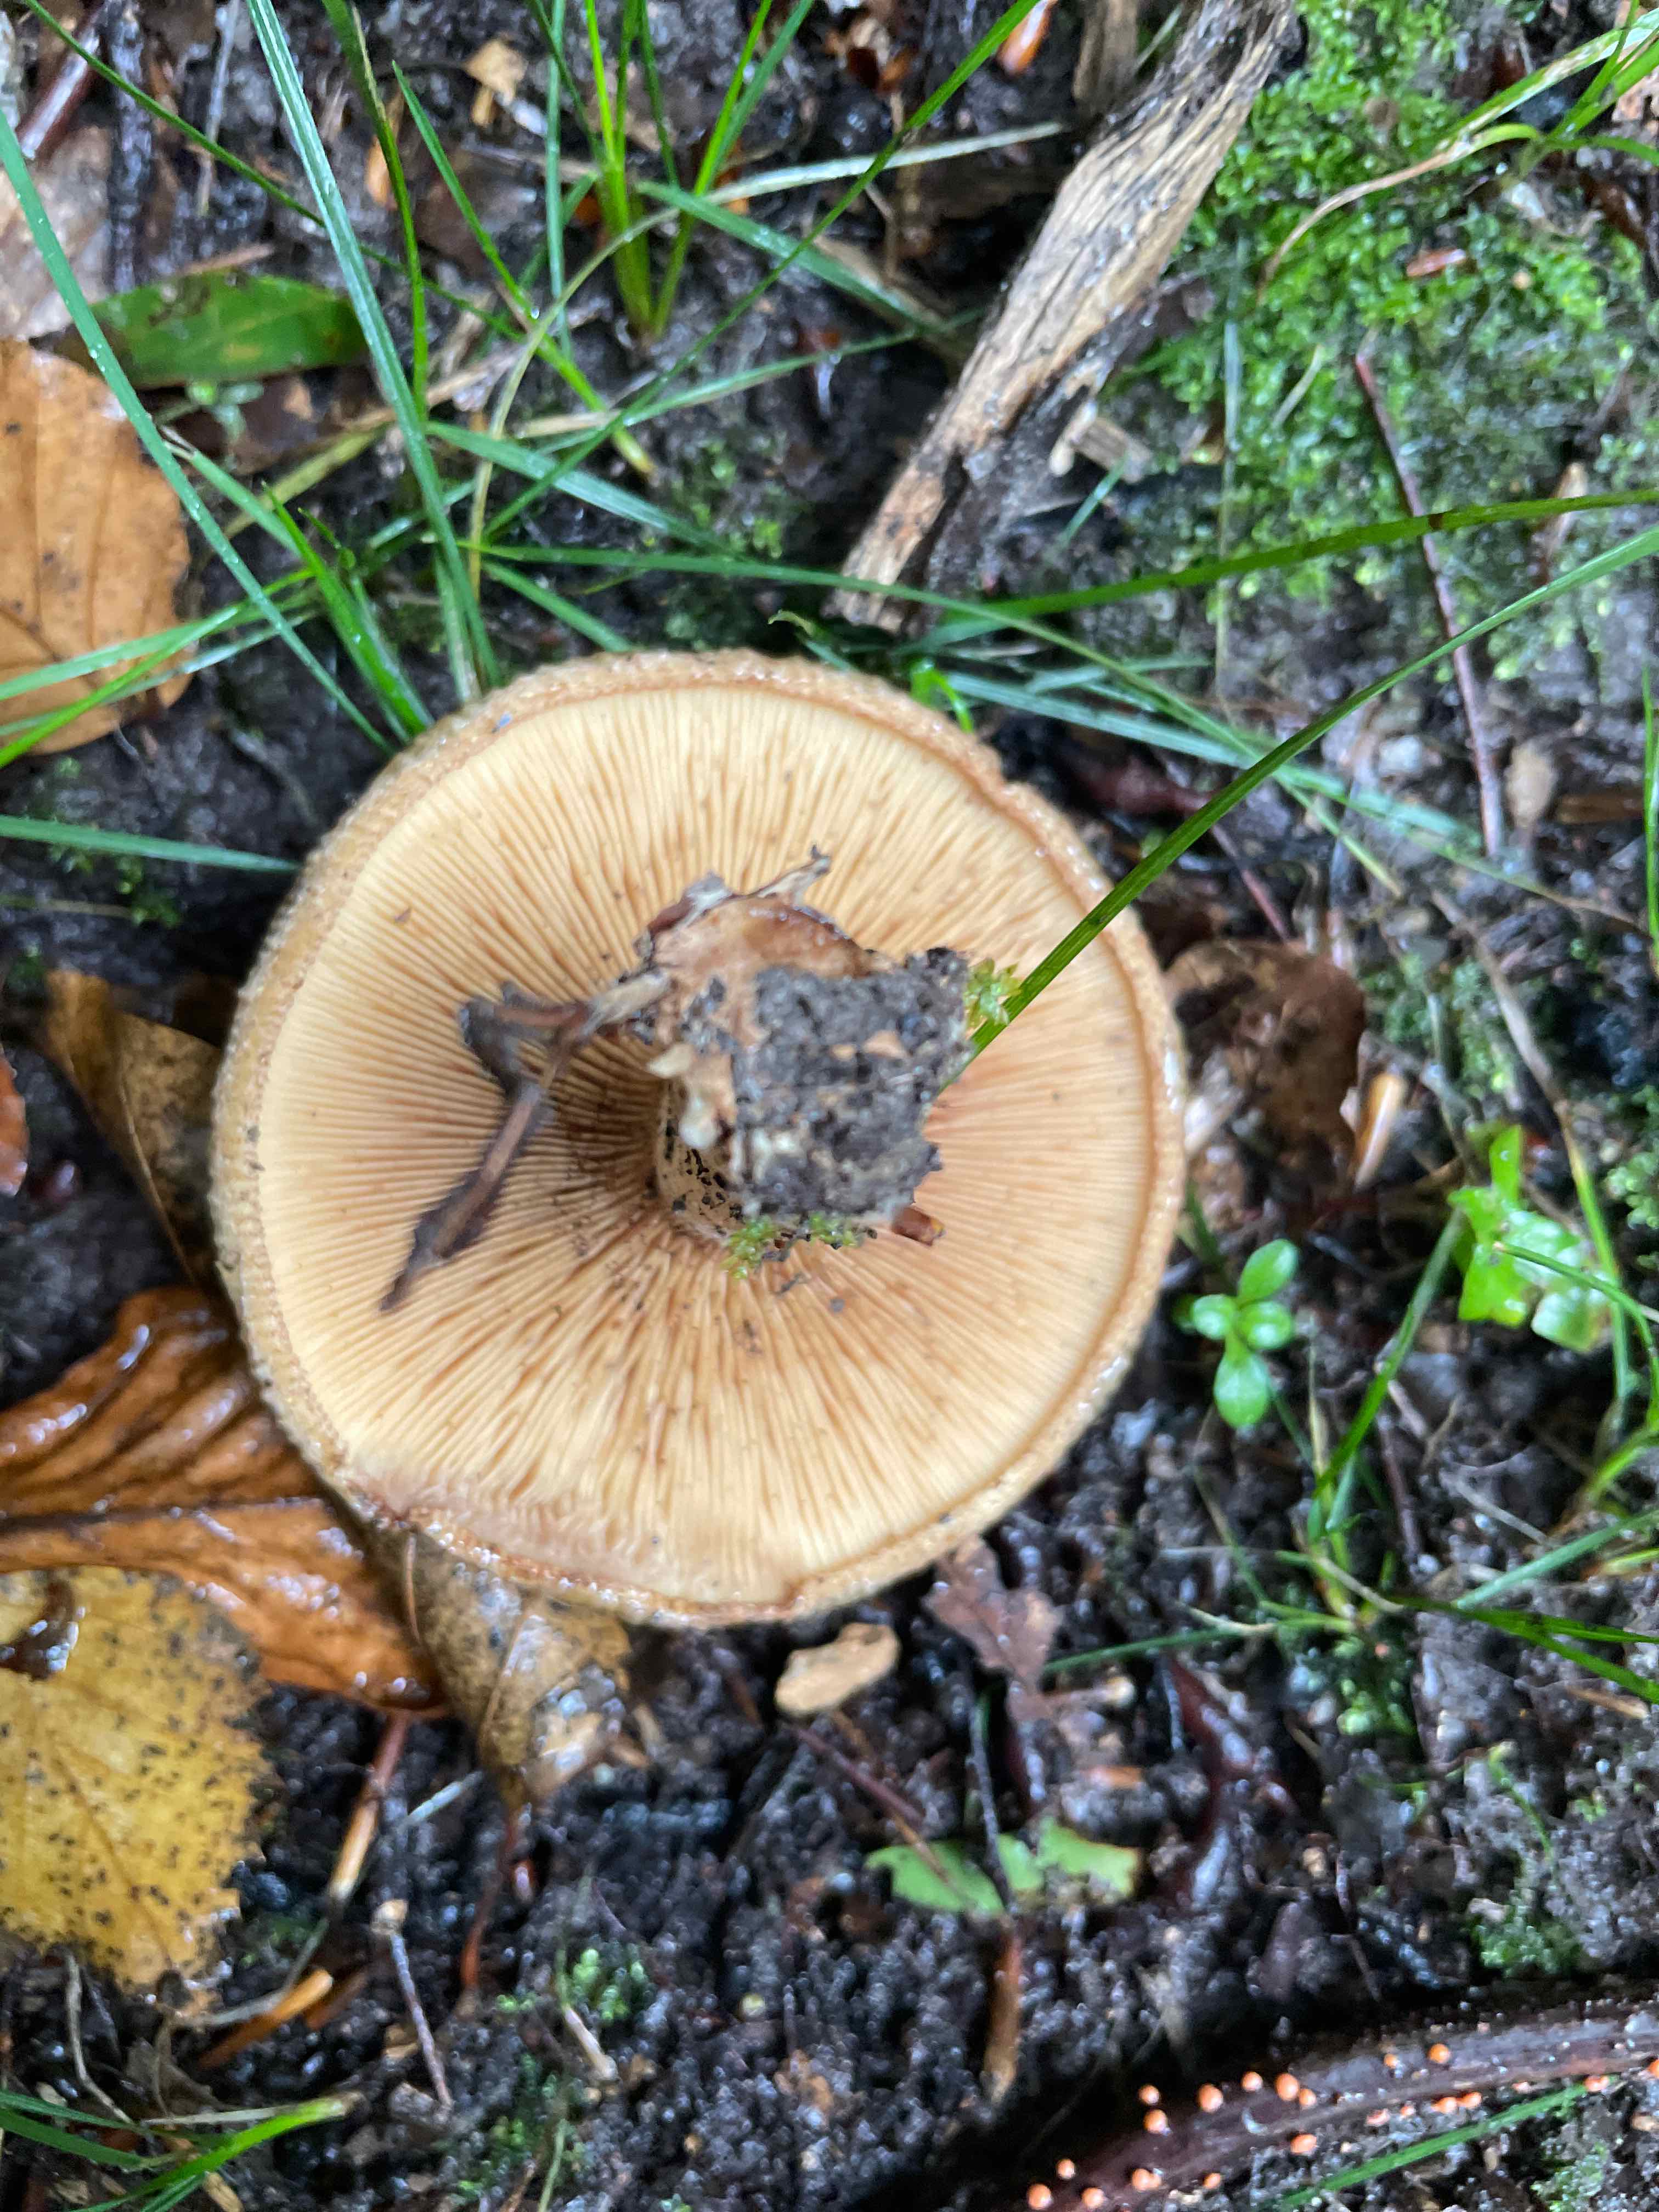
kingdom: Fungi
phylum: Basidiomycota
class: Agaricomycetes
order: Boletales
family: Paxillaceae
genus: Paxillus
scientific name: Paxillus
